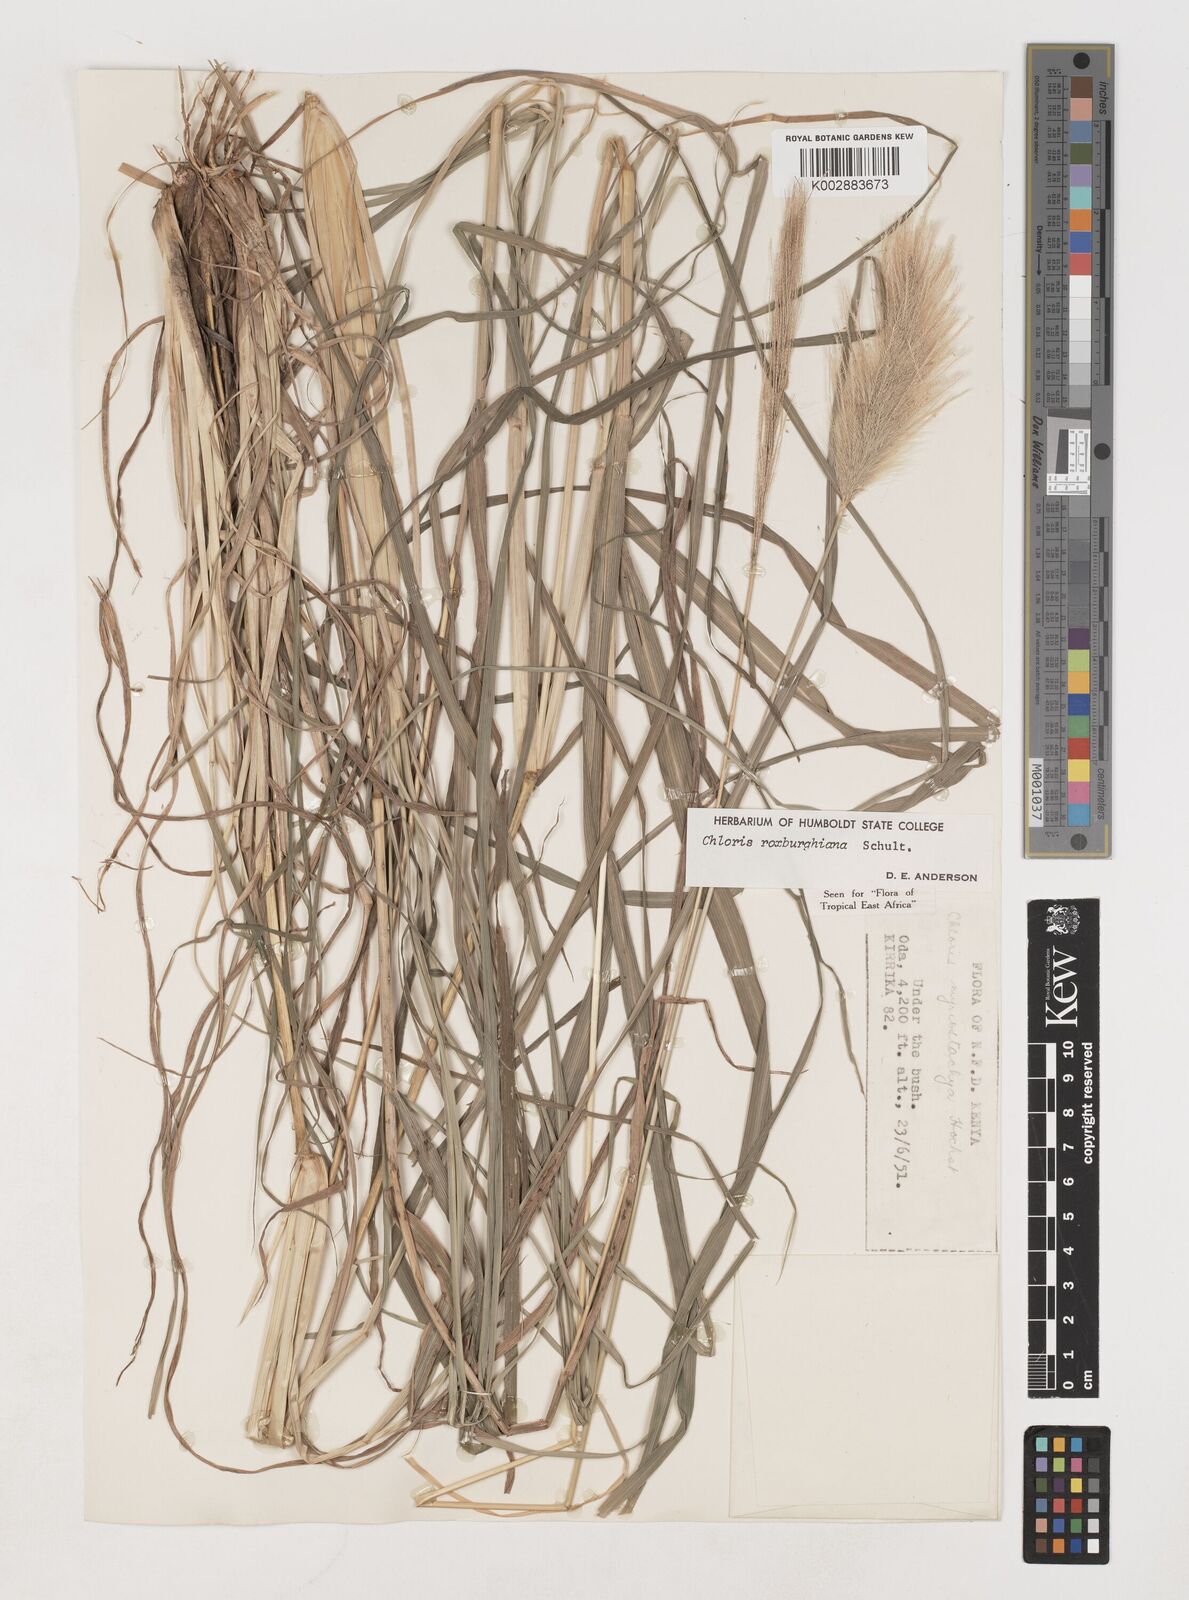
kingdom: Plantae
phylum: Tracheophyta
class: Liliopsida
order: Poales
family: Poaceae
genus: Tetrapogon
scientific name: Tetrapogon roxburghiana
